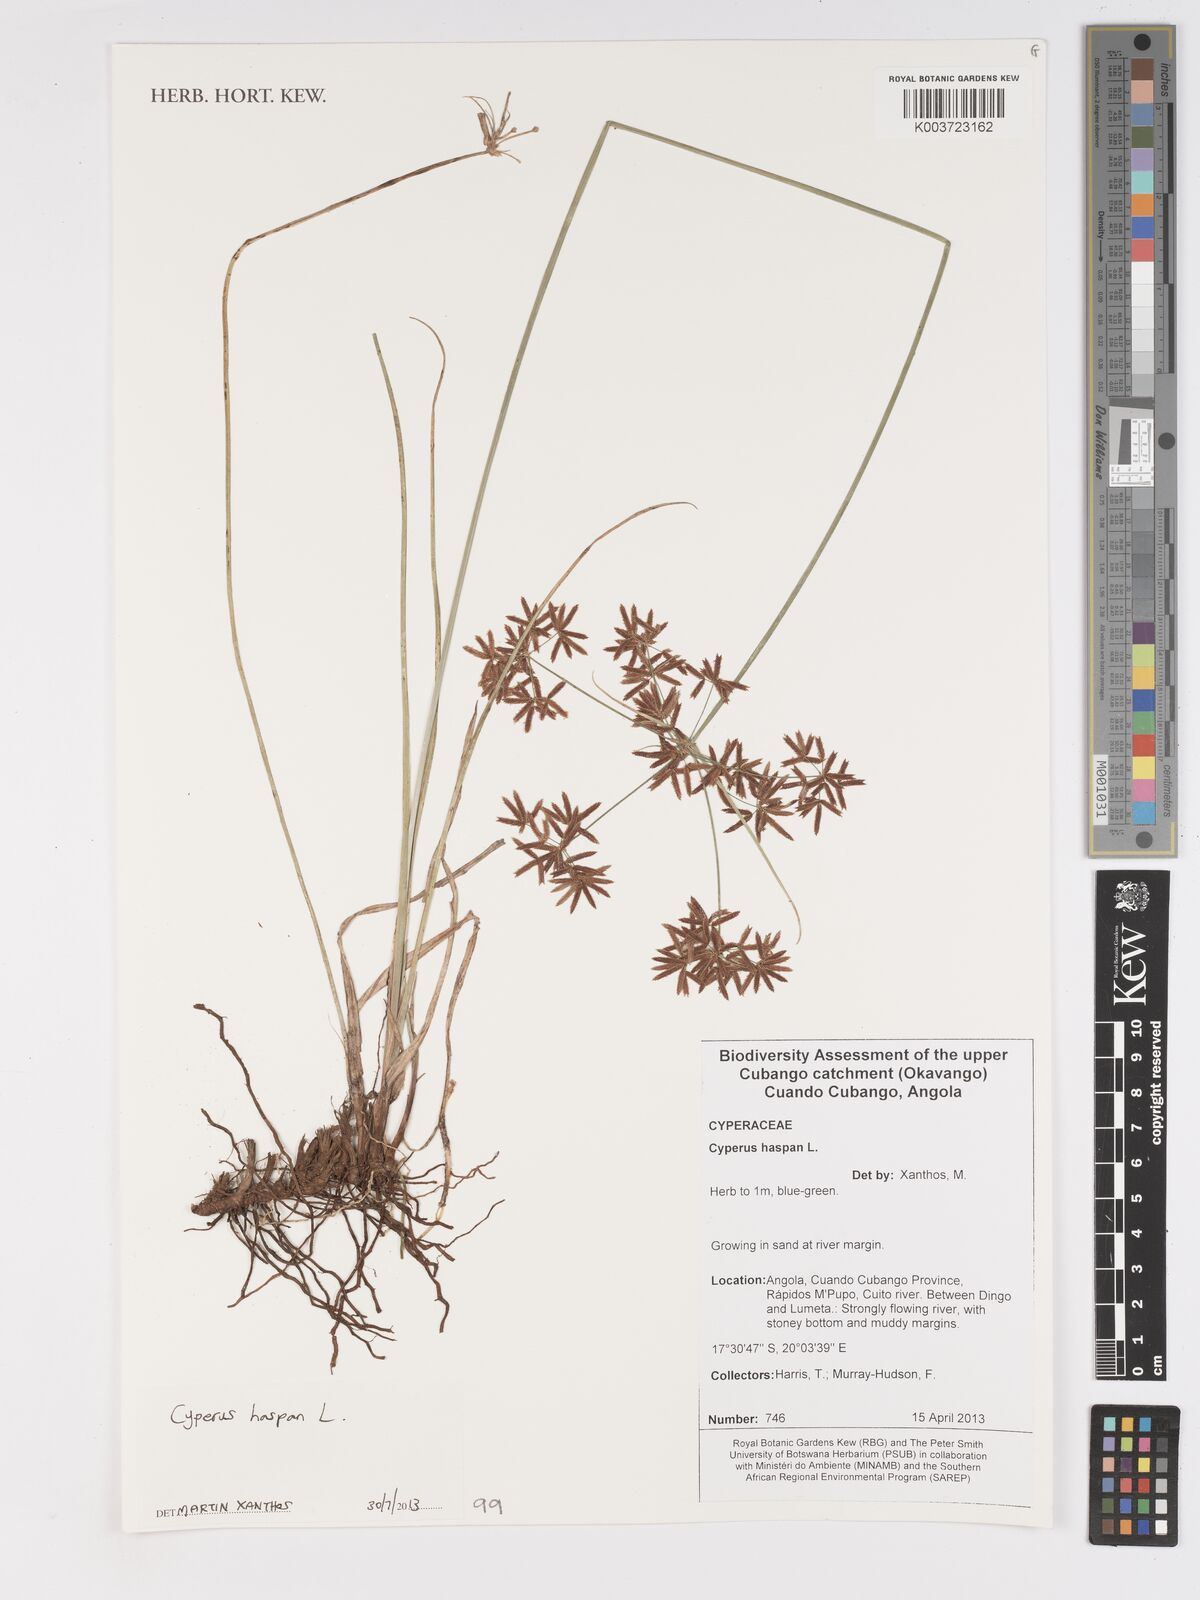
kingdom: Plantae
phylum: Tracheophyta
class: Liliopsida
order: Poales
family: Cyperaceae
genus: Cyperus
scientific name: Cyperus haspan
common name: Haspan flatsedge
